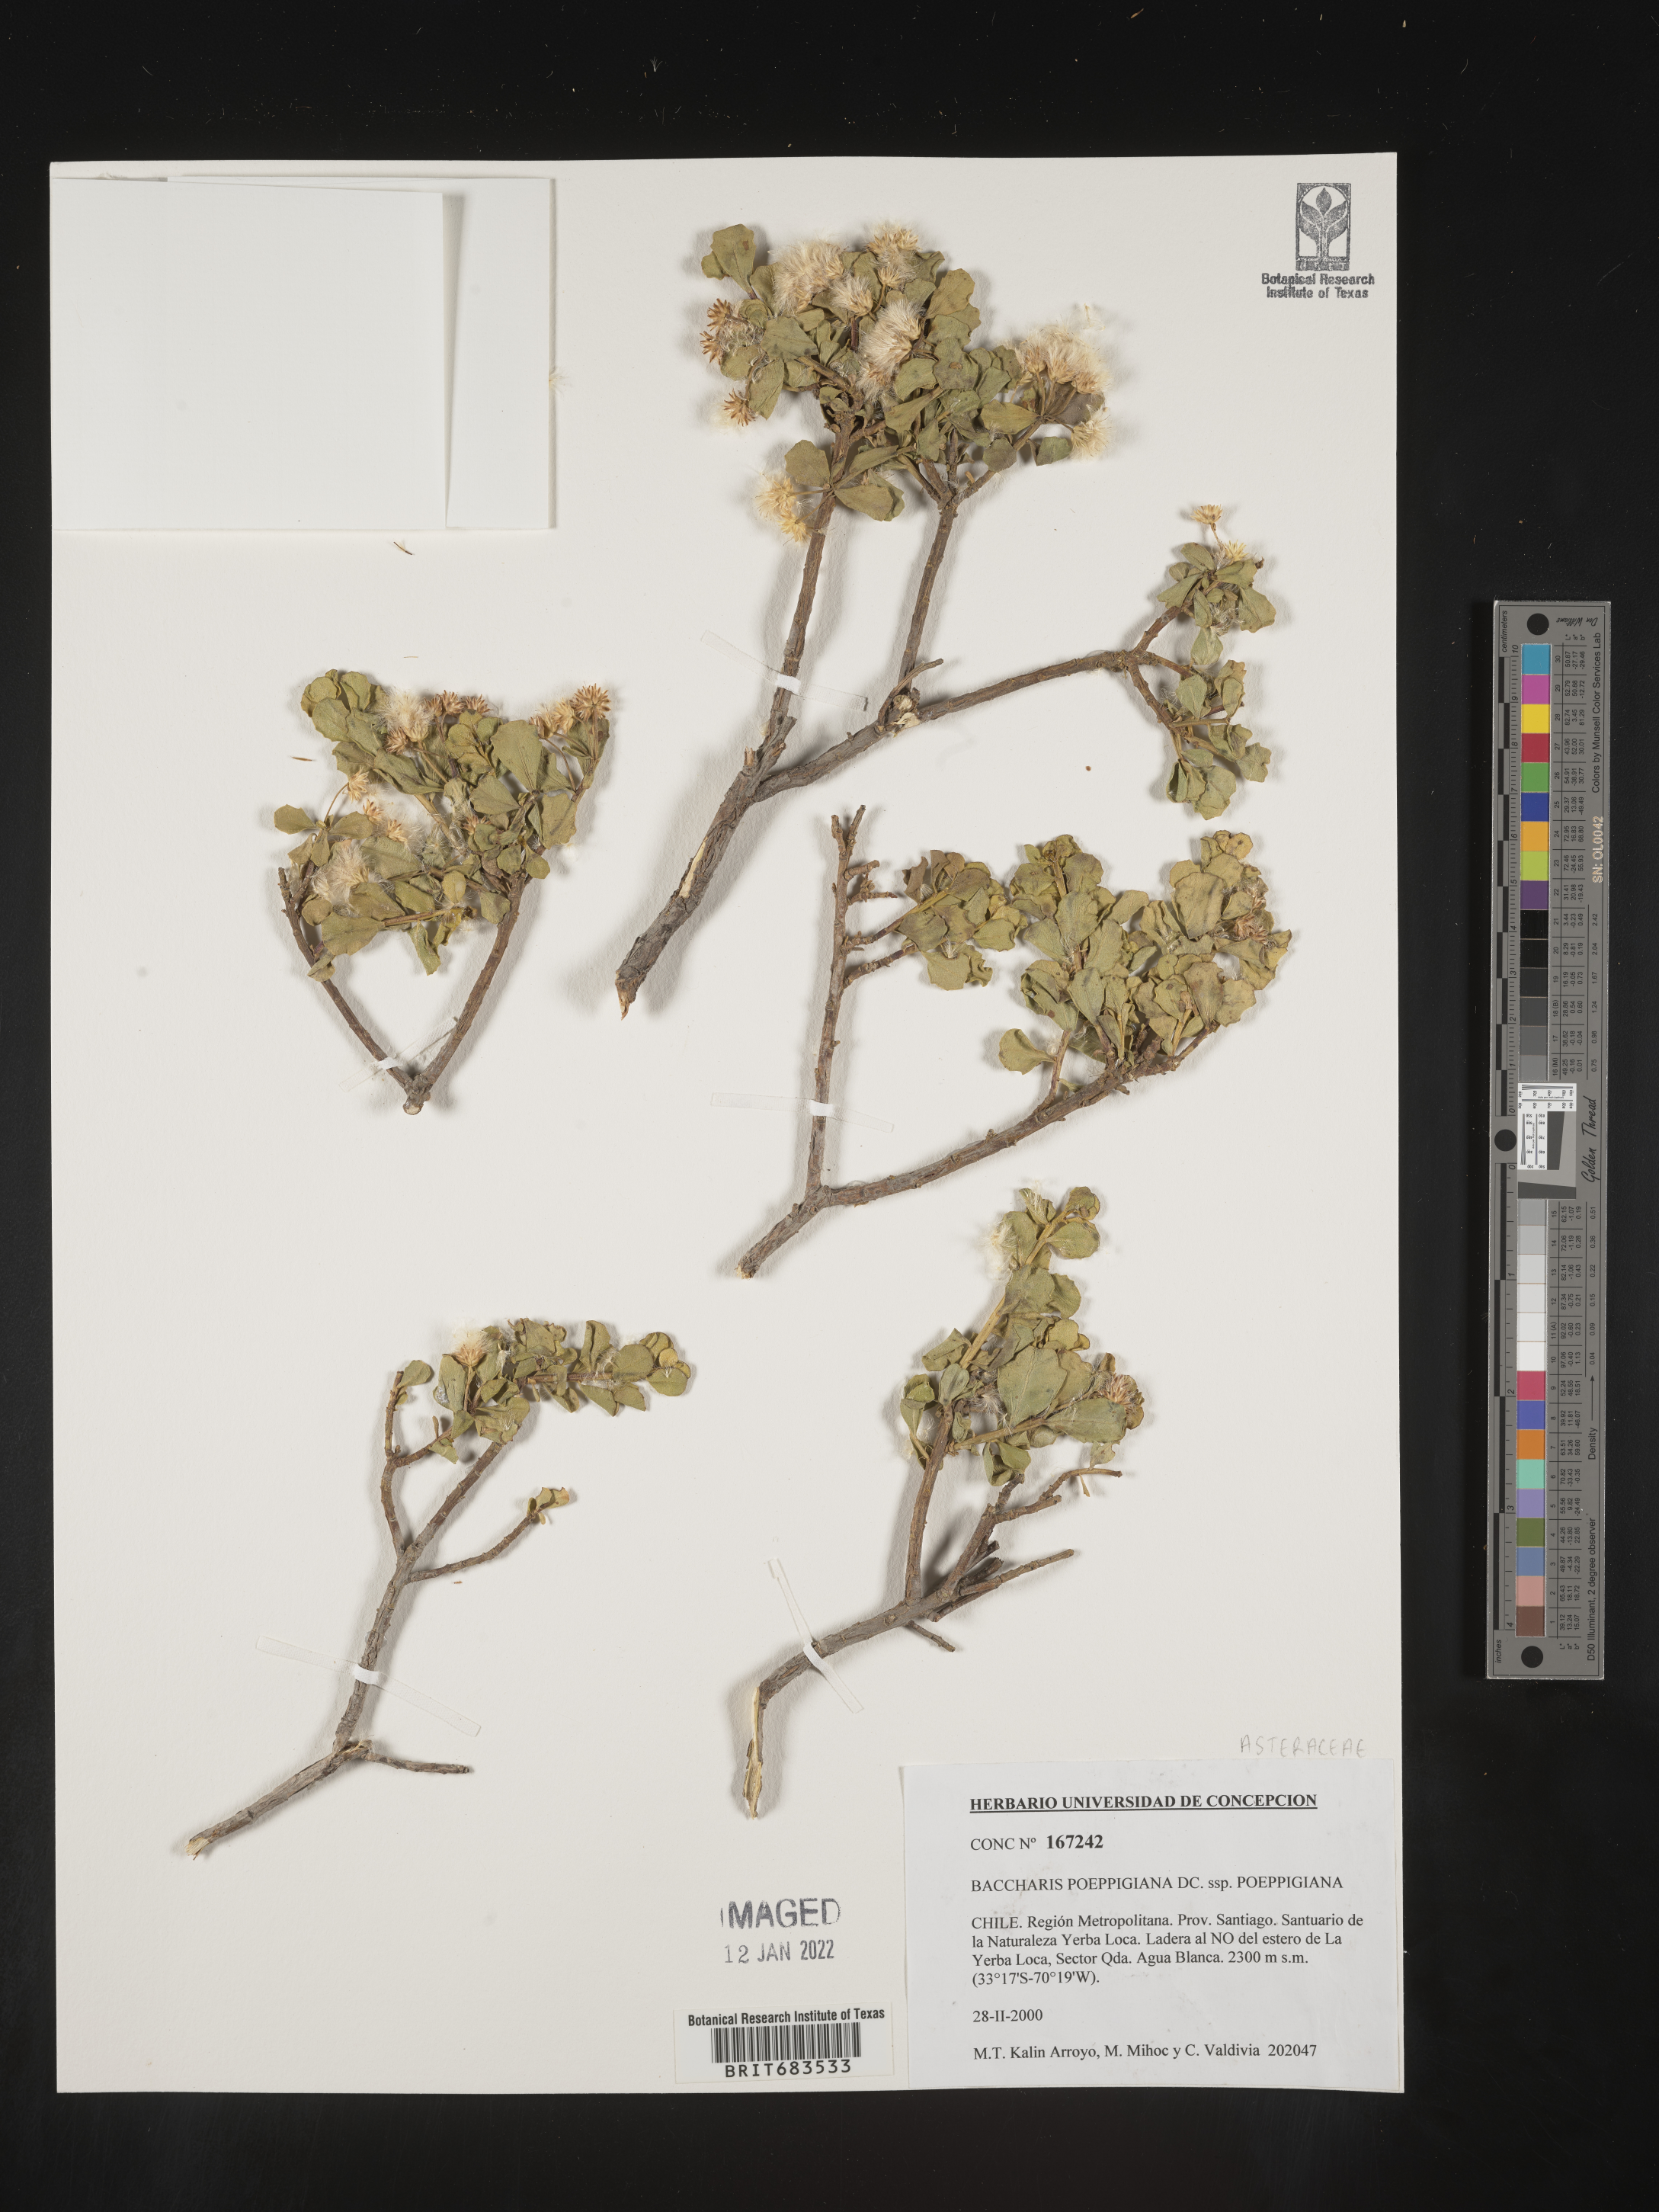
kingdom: Plantae
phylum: Tracheophyta
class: Magnoliopsida
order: Asterales
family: Asteraceae
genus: Baccharis
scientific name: Baccharis
